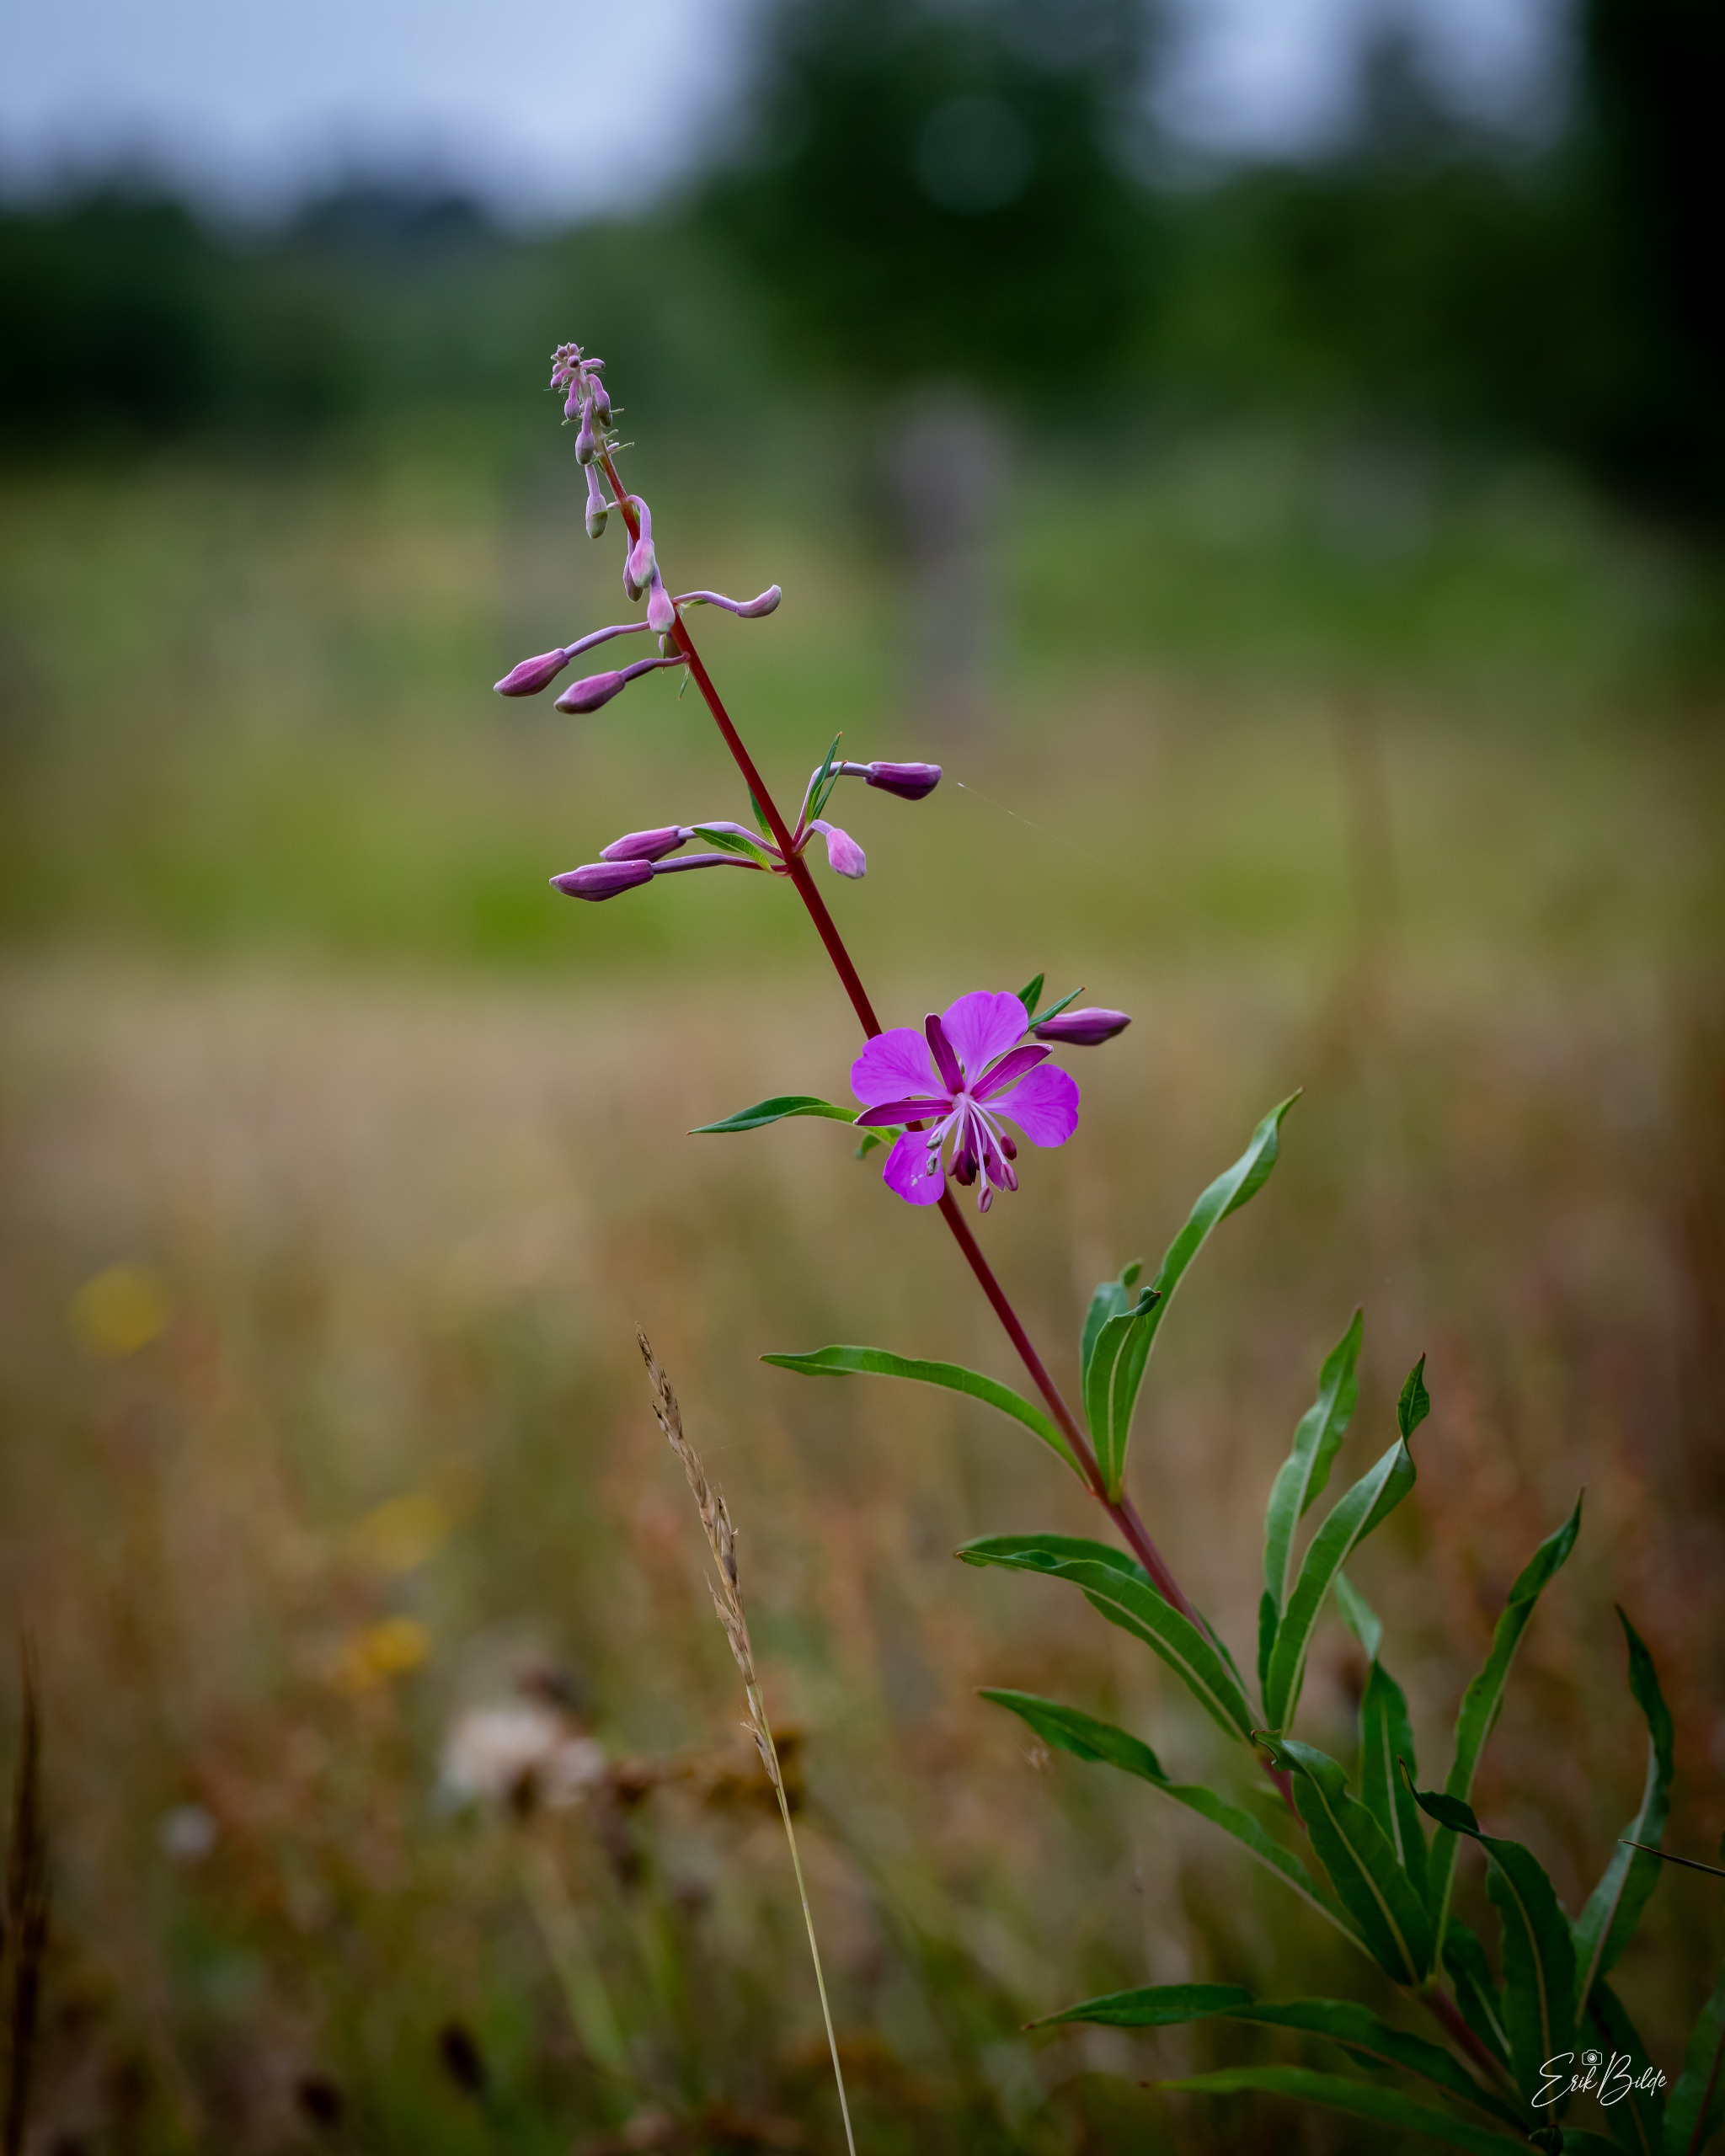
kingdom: Plantae
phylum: Tracheophyta
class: Magnoliopsida
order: Myrtales
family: Onagraceae
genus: Chamaenerion
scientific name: Chamaenerion angustifolium
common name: Gederams
